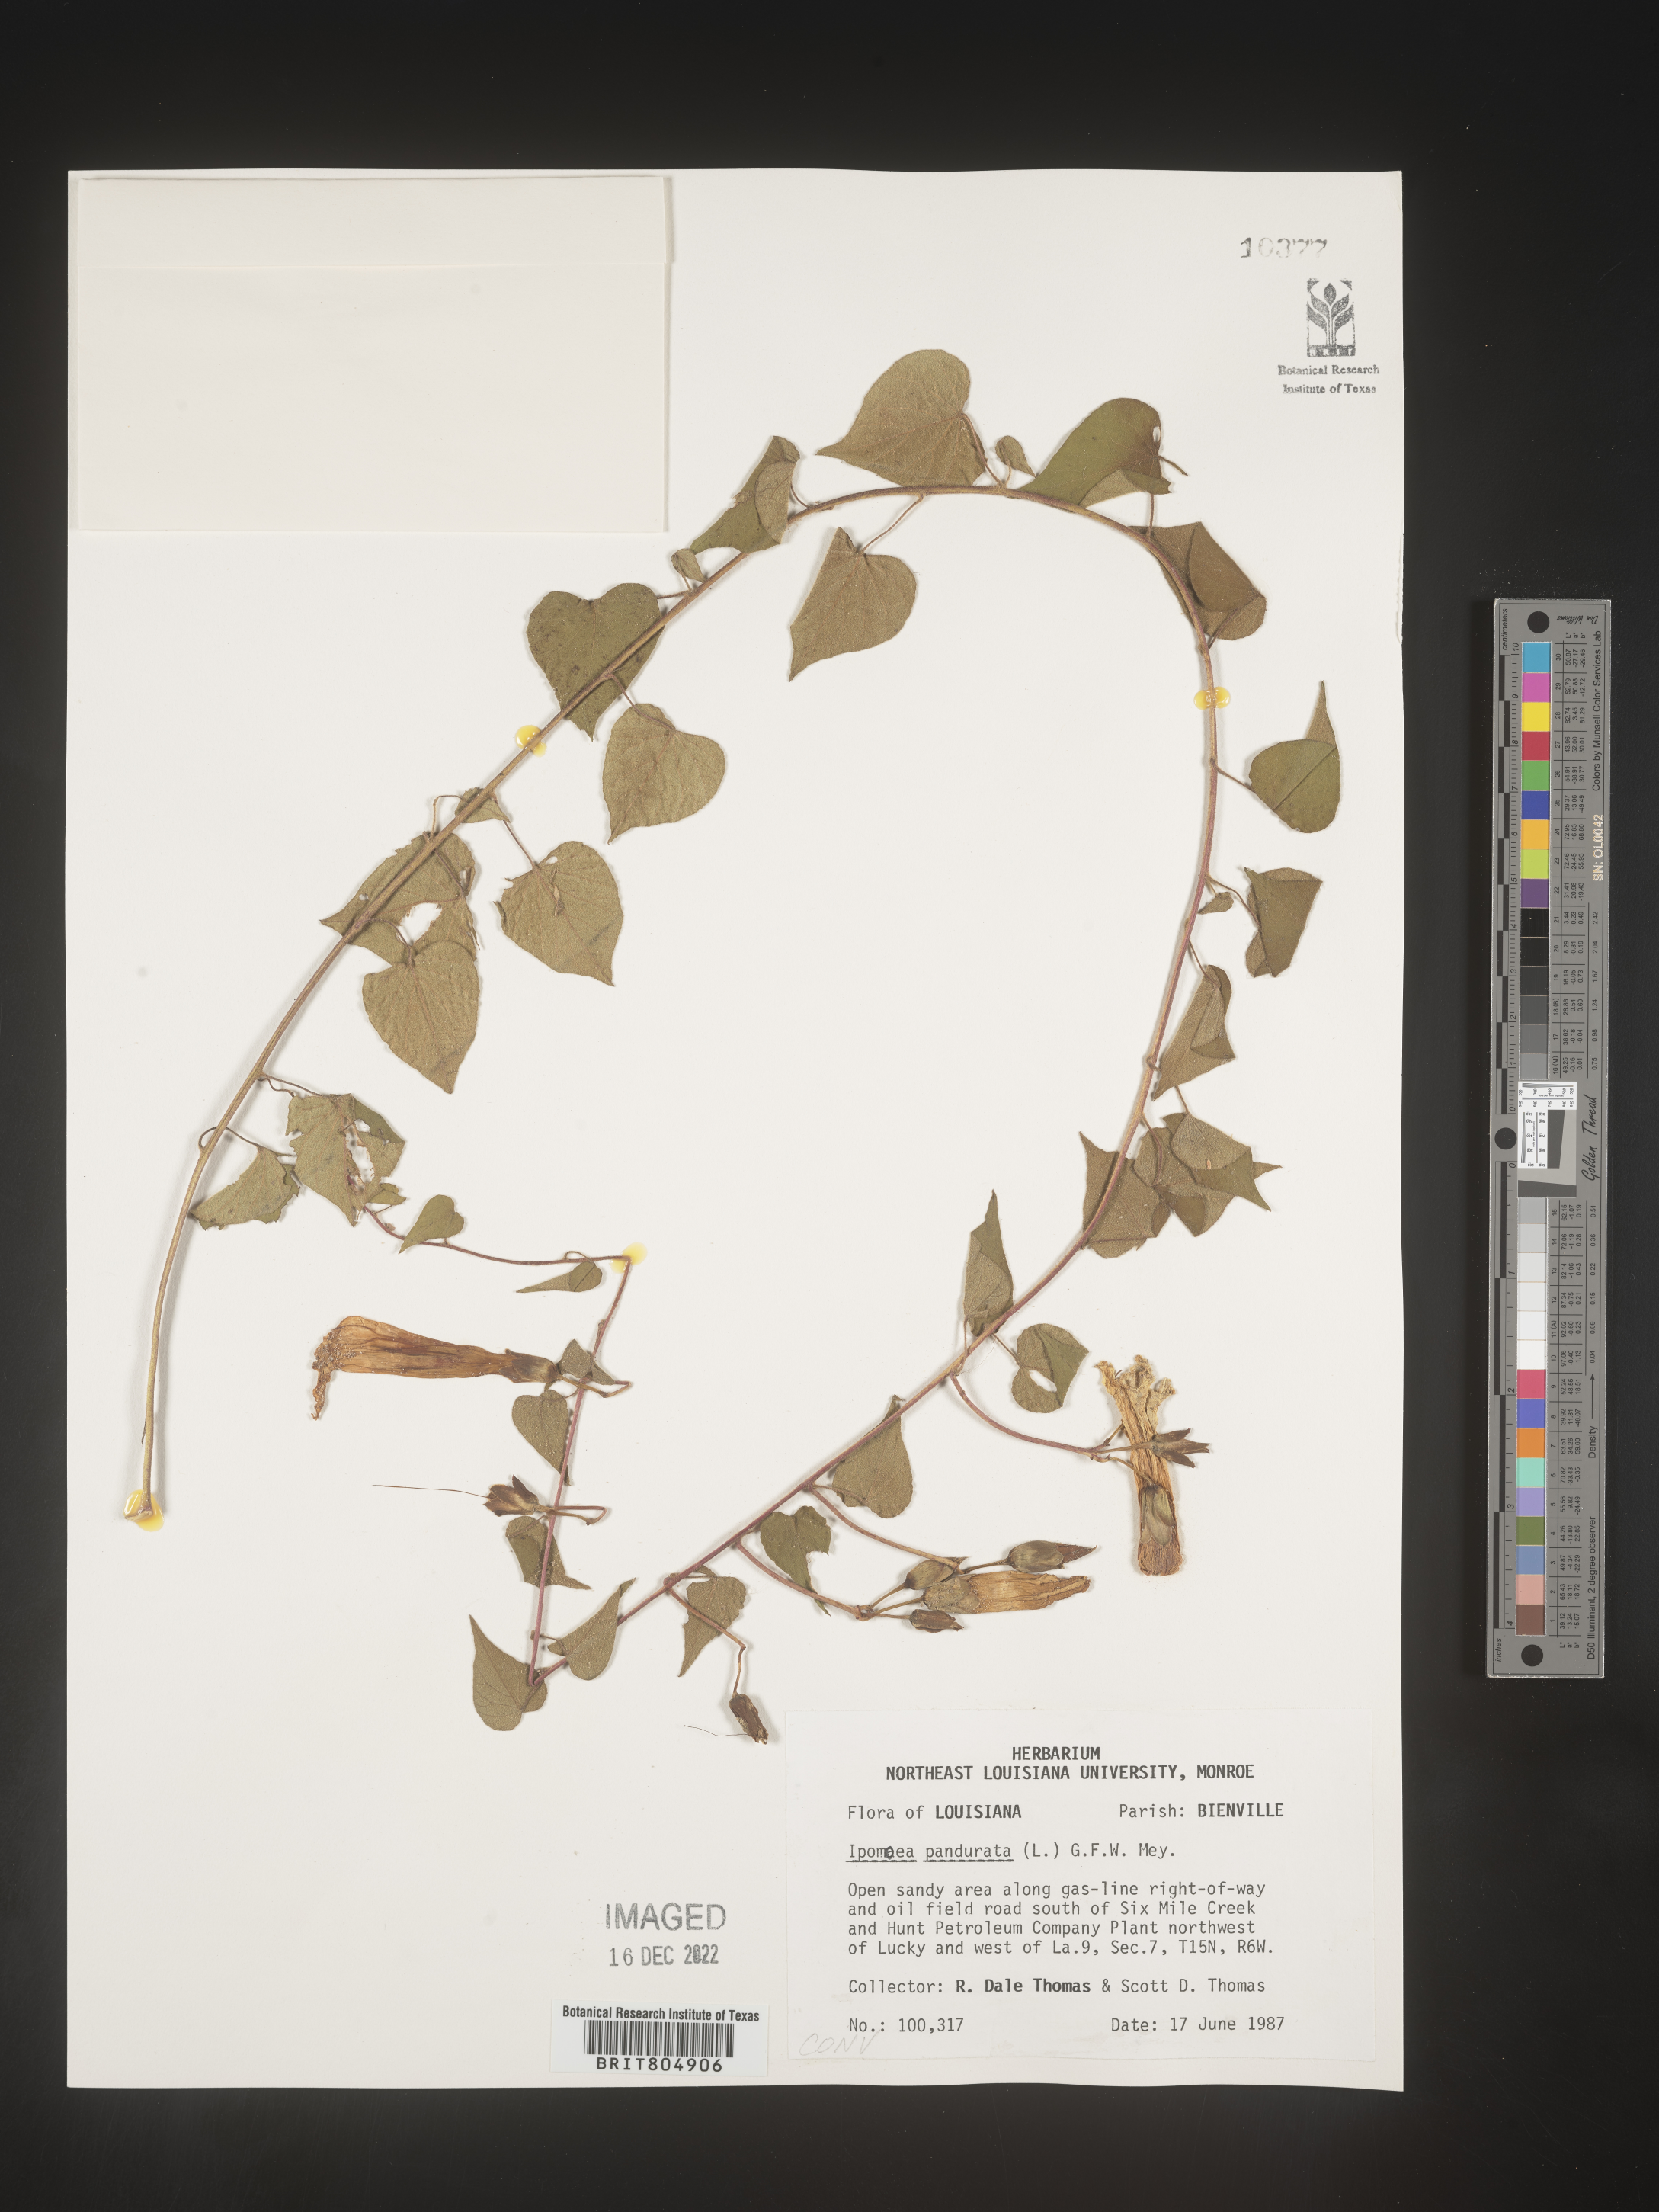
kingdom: Plantae
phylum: Tracheophyta
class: Magnoliopsida
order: Solanales
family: Convolvulaceae
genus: Ipomoea
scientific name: Ipomoea pandurata
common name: Man-of-the-earth
